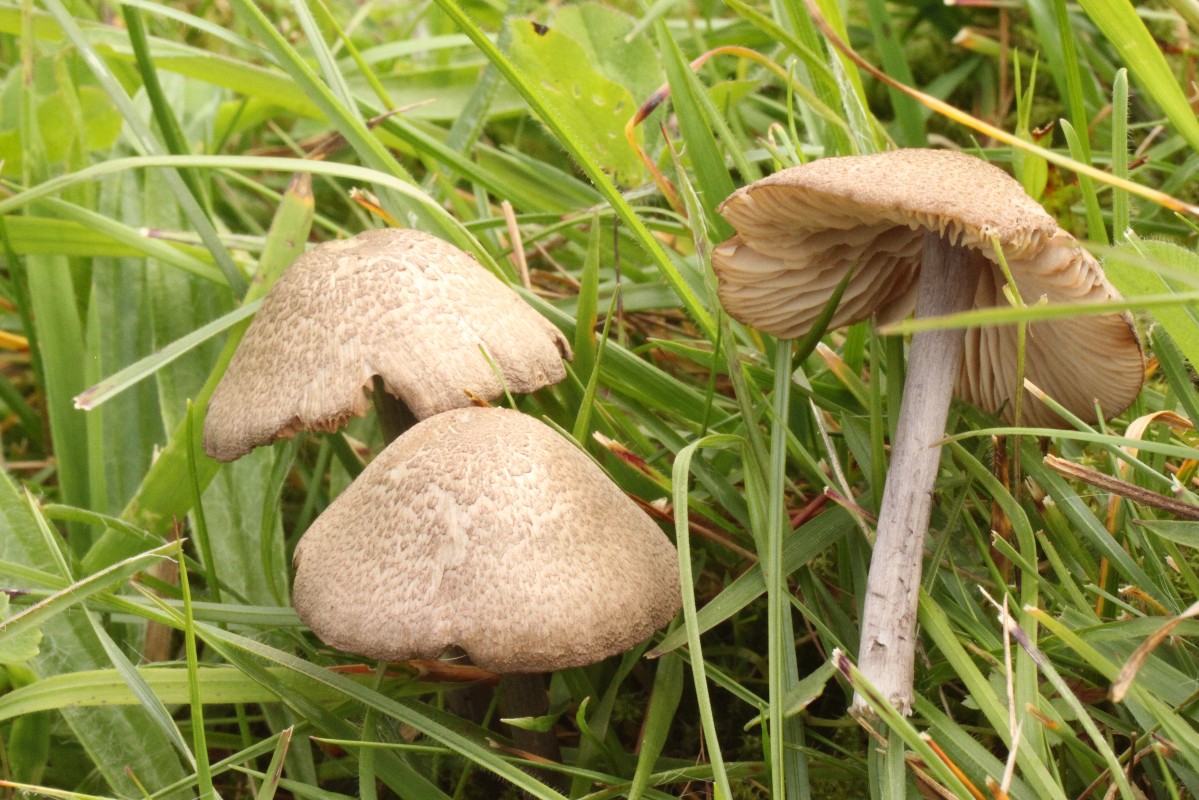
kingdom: Fungi
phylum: Basidiomycota
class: Agaricomycetes
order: Agaricales
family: Entolomataceae
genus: Entoloma
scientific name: Entoloma griseocyaneum
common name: gråblå rødblad
